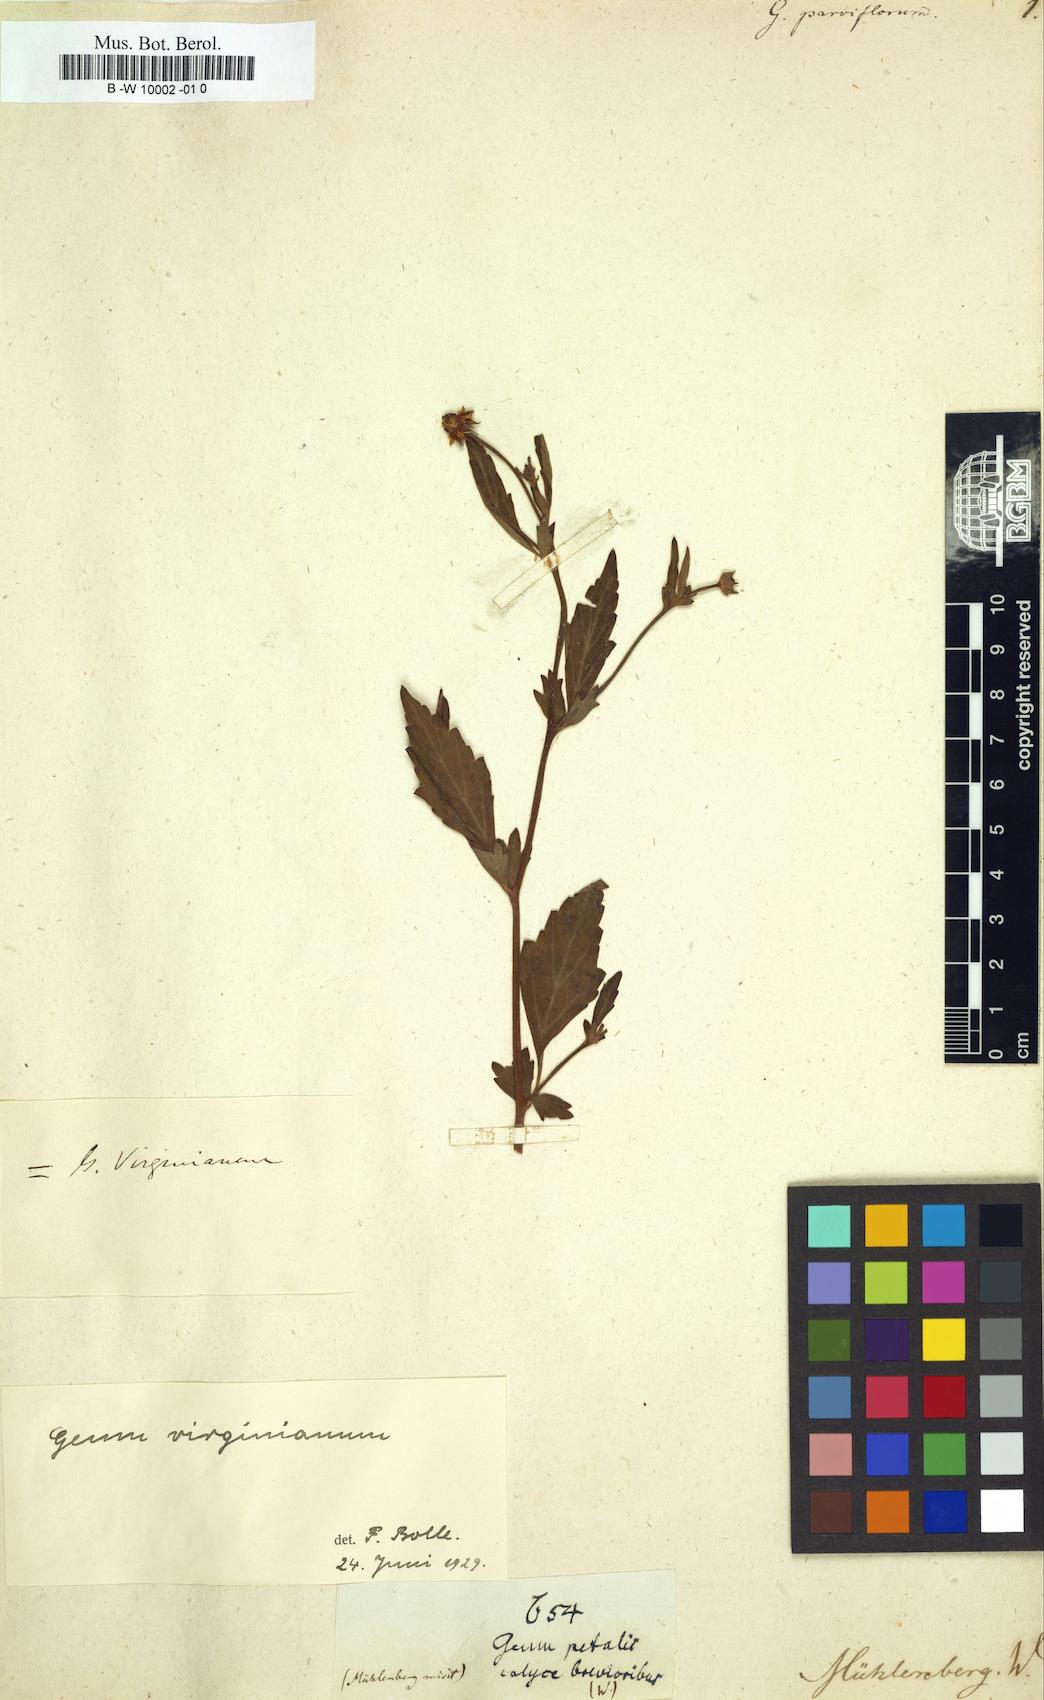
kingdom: Plantae
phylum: Tracheophyta
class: Magnoliopsida
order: Rosales
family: Rosaceae
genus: Geum
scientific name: Geum
